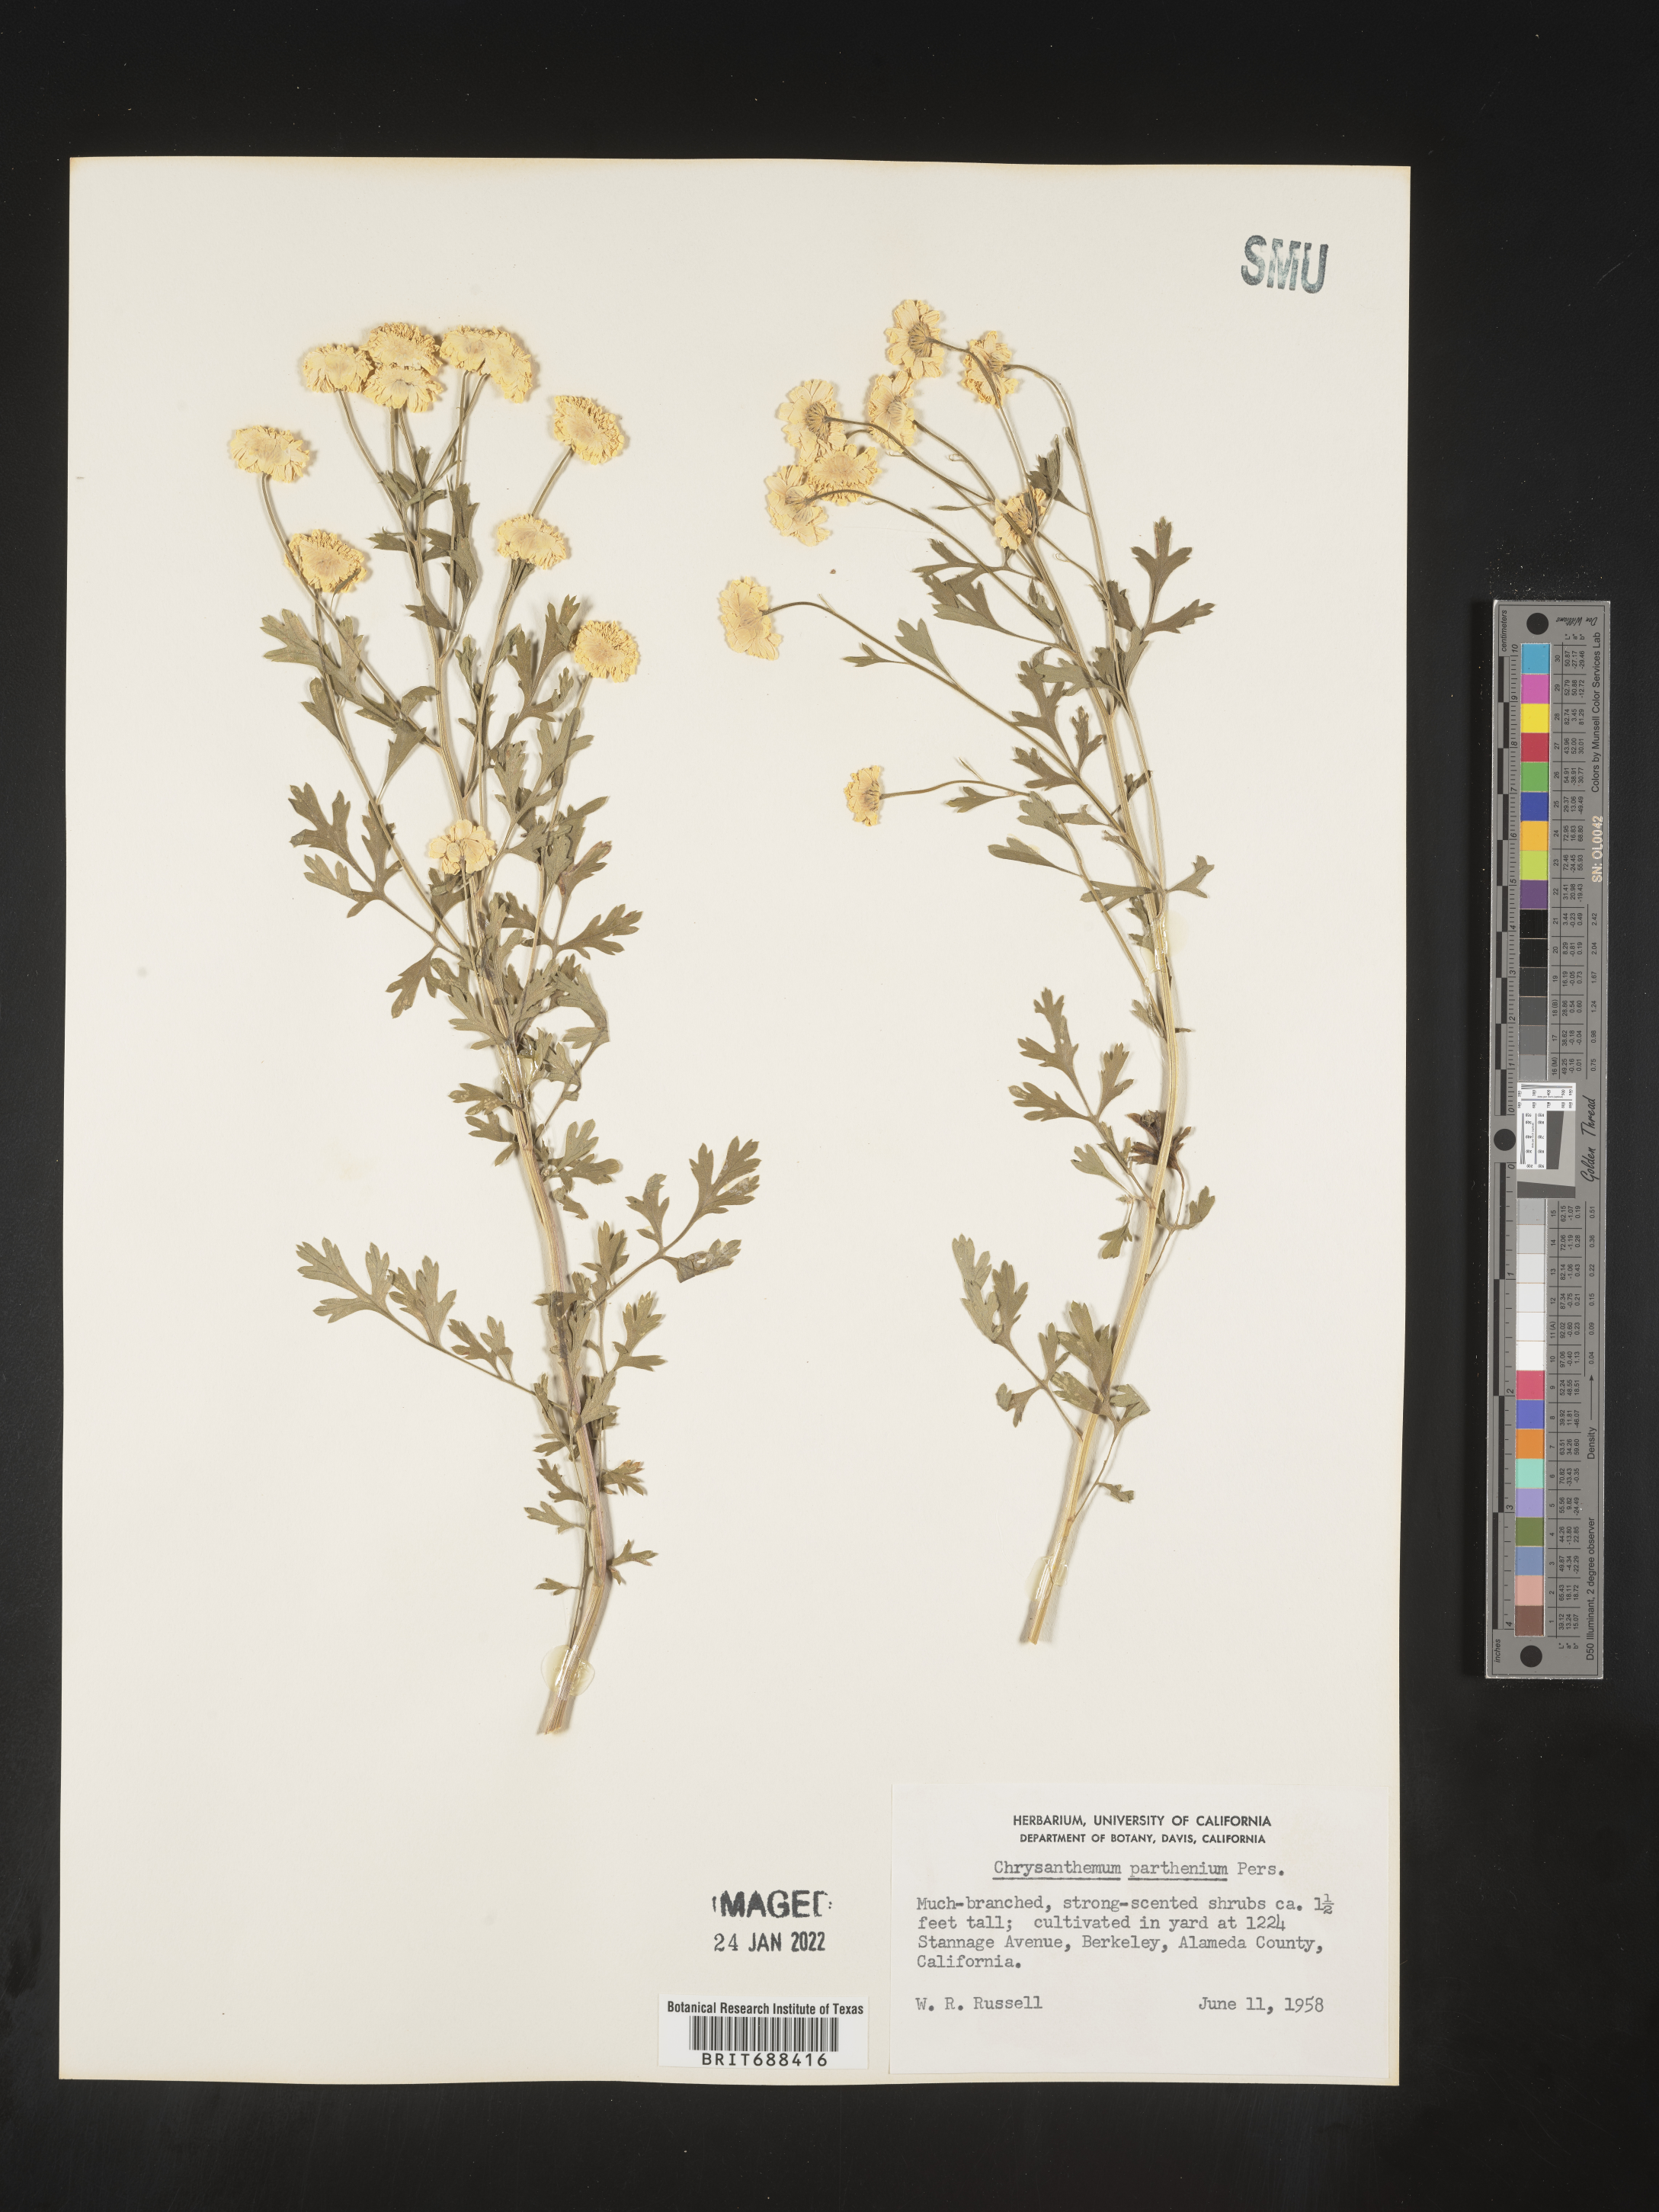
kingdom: Plantae
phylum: Tracheophyta
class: Magnoliopsida
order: Asterales
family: Asteraceae
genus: Chrysanthemum
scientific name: Chrysanthemum
